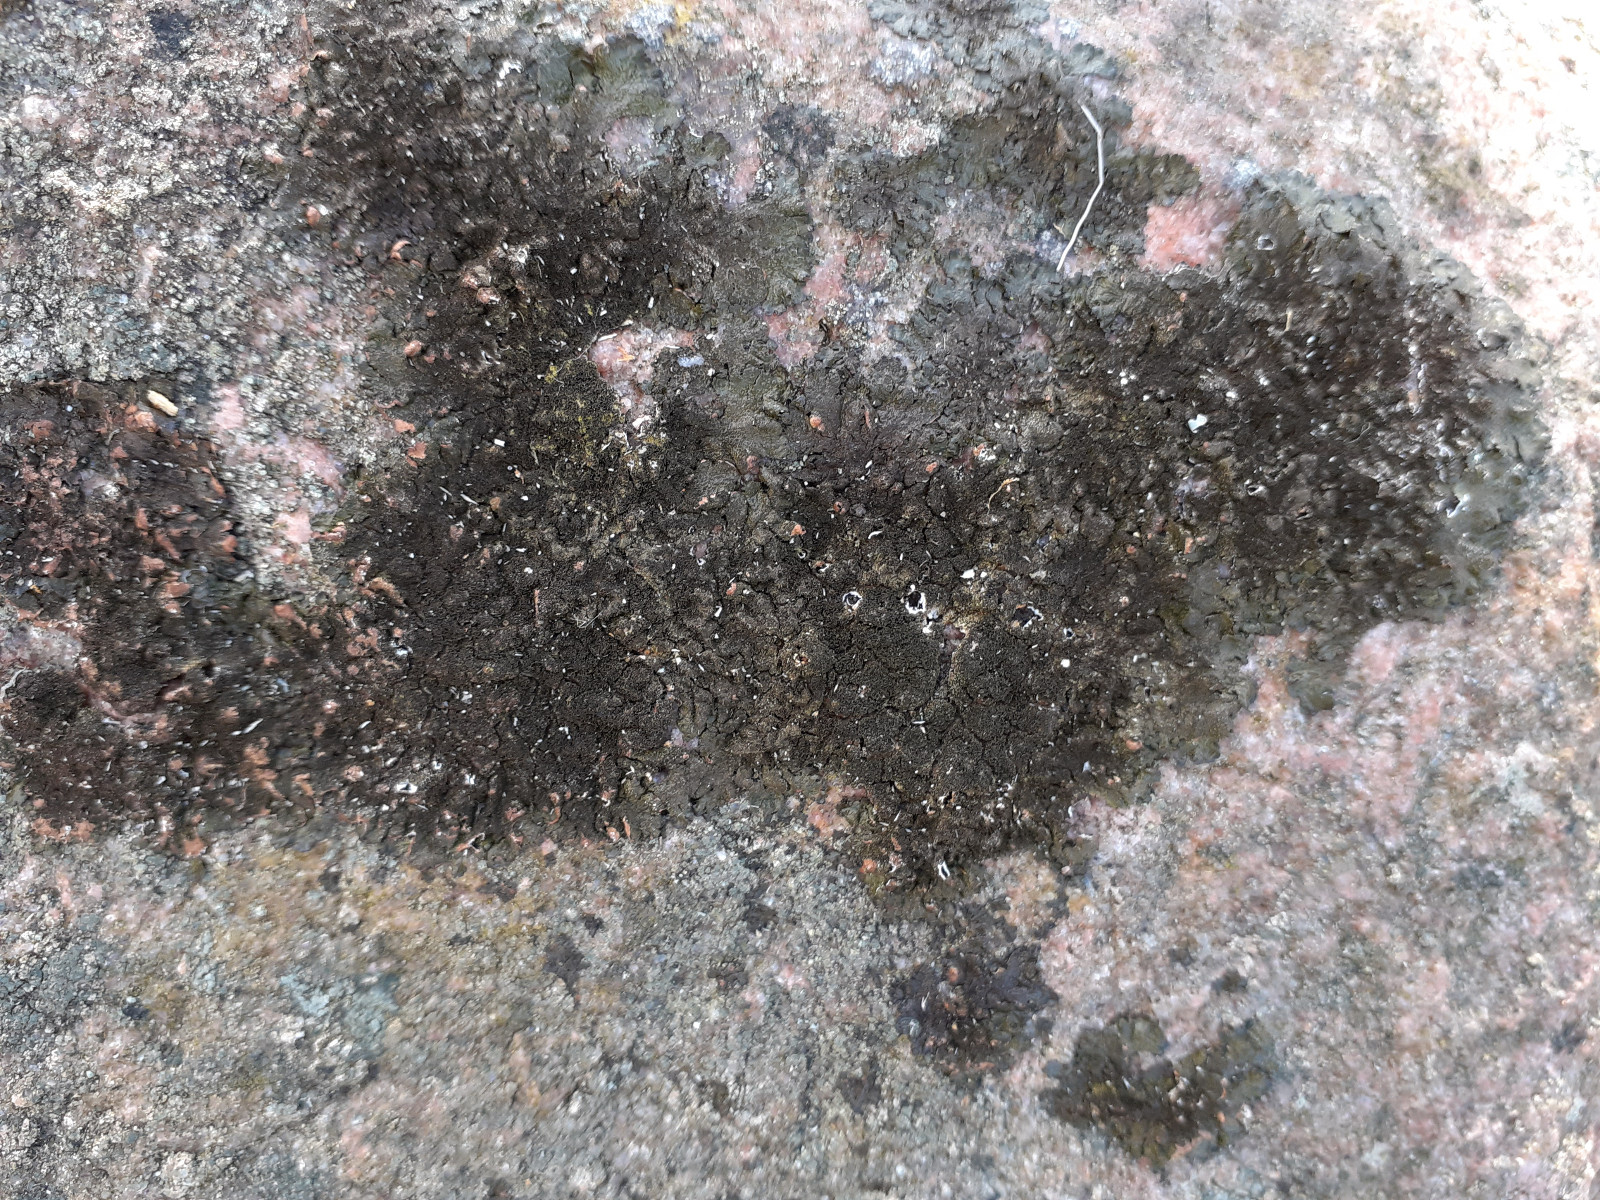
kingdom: Fungi
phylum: Ascomycota
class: Lecanoromycetes
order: Lecanorales
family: Parmeliaceae
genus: Melanelixia
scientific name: Melanelixia fuliginosa
